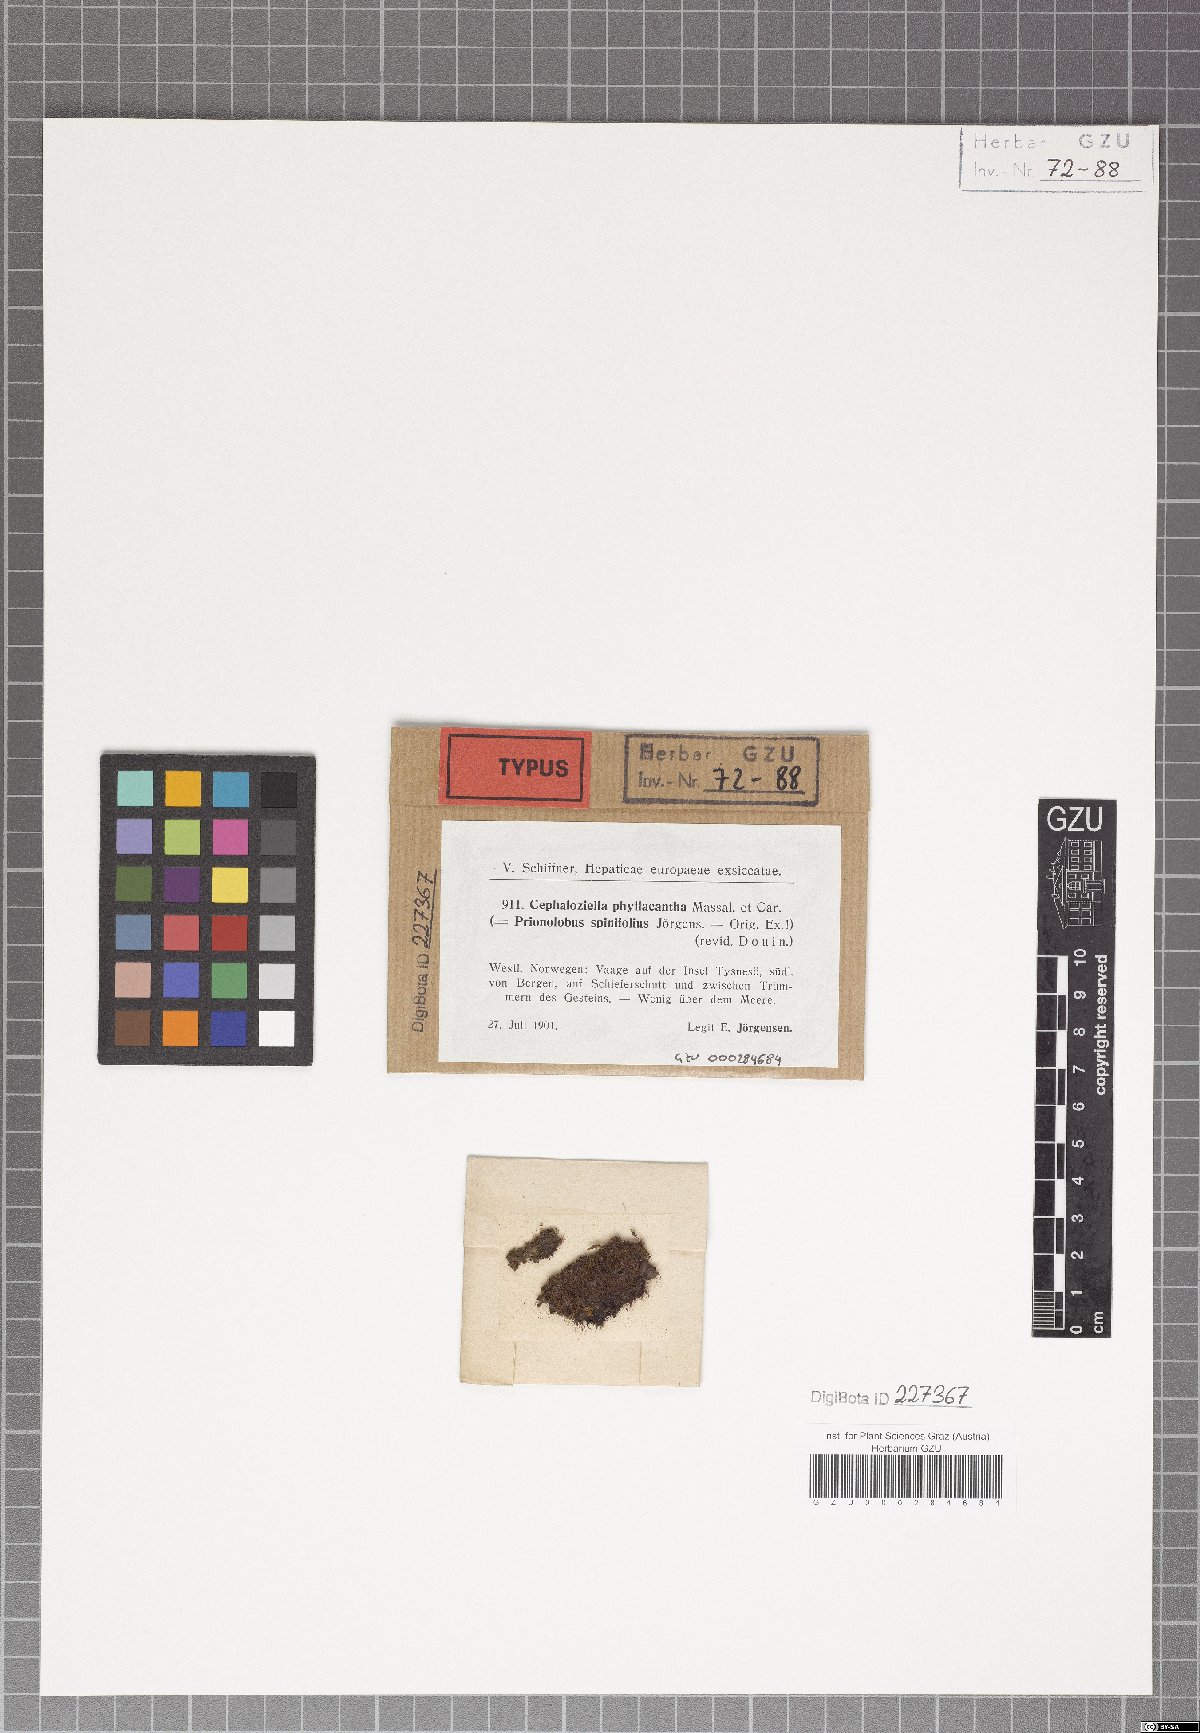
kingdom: Plantae
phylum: Marchantiophyta
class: Jungermanniopsida
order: Jungermanniales
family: Cephaloziellaceae
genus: Cephaloziella
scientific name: Cephaloziella phyllacantha
